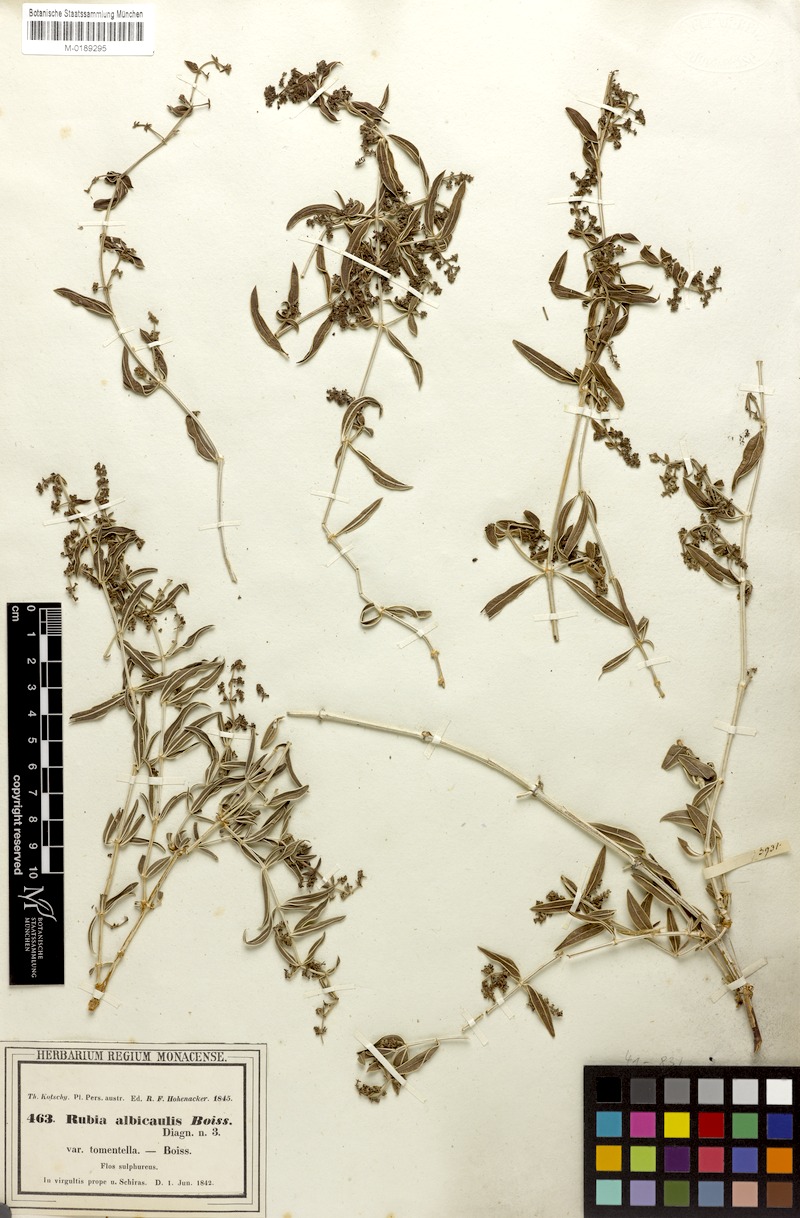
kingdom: Plantae
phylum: Tracheophyta
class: Magnoliopsida
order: Gentianales
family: Rubiaceae
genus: Rubia
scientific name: Rubia albicaulis
